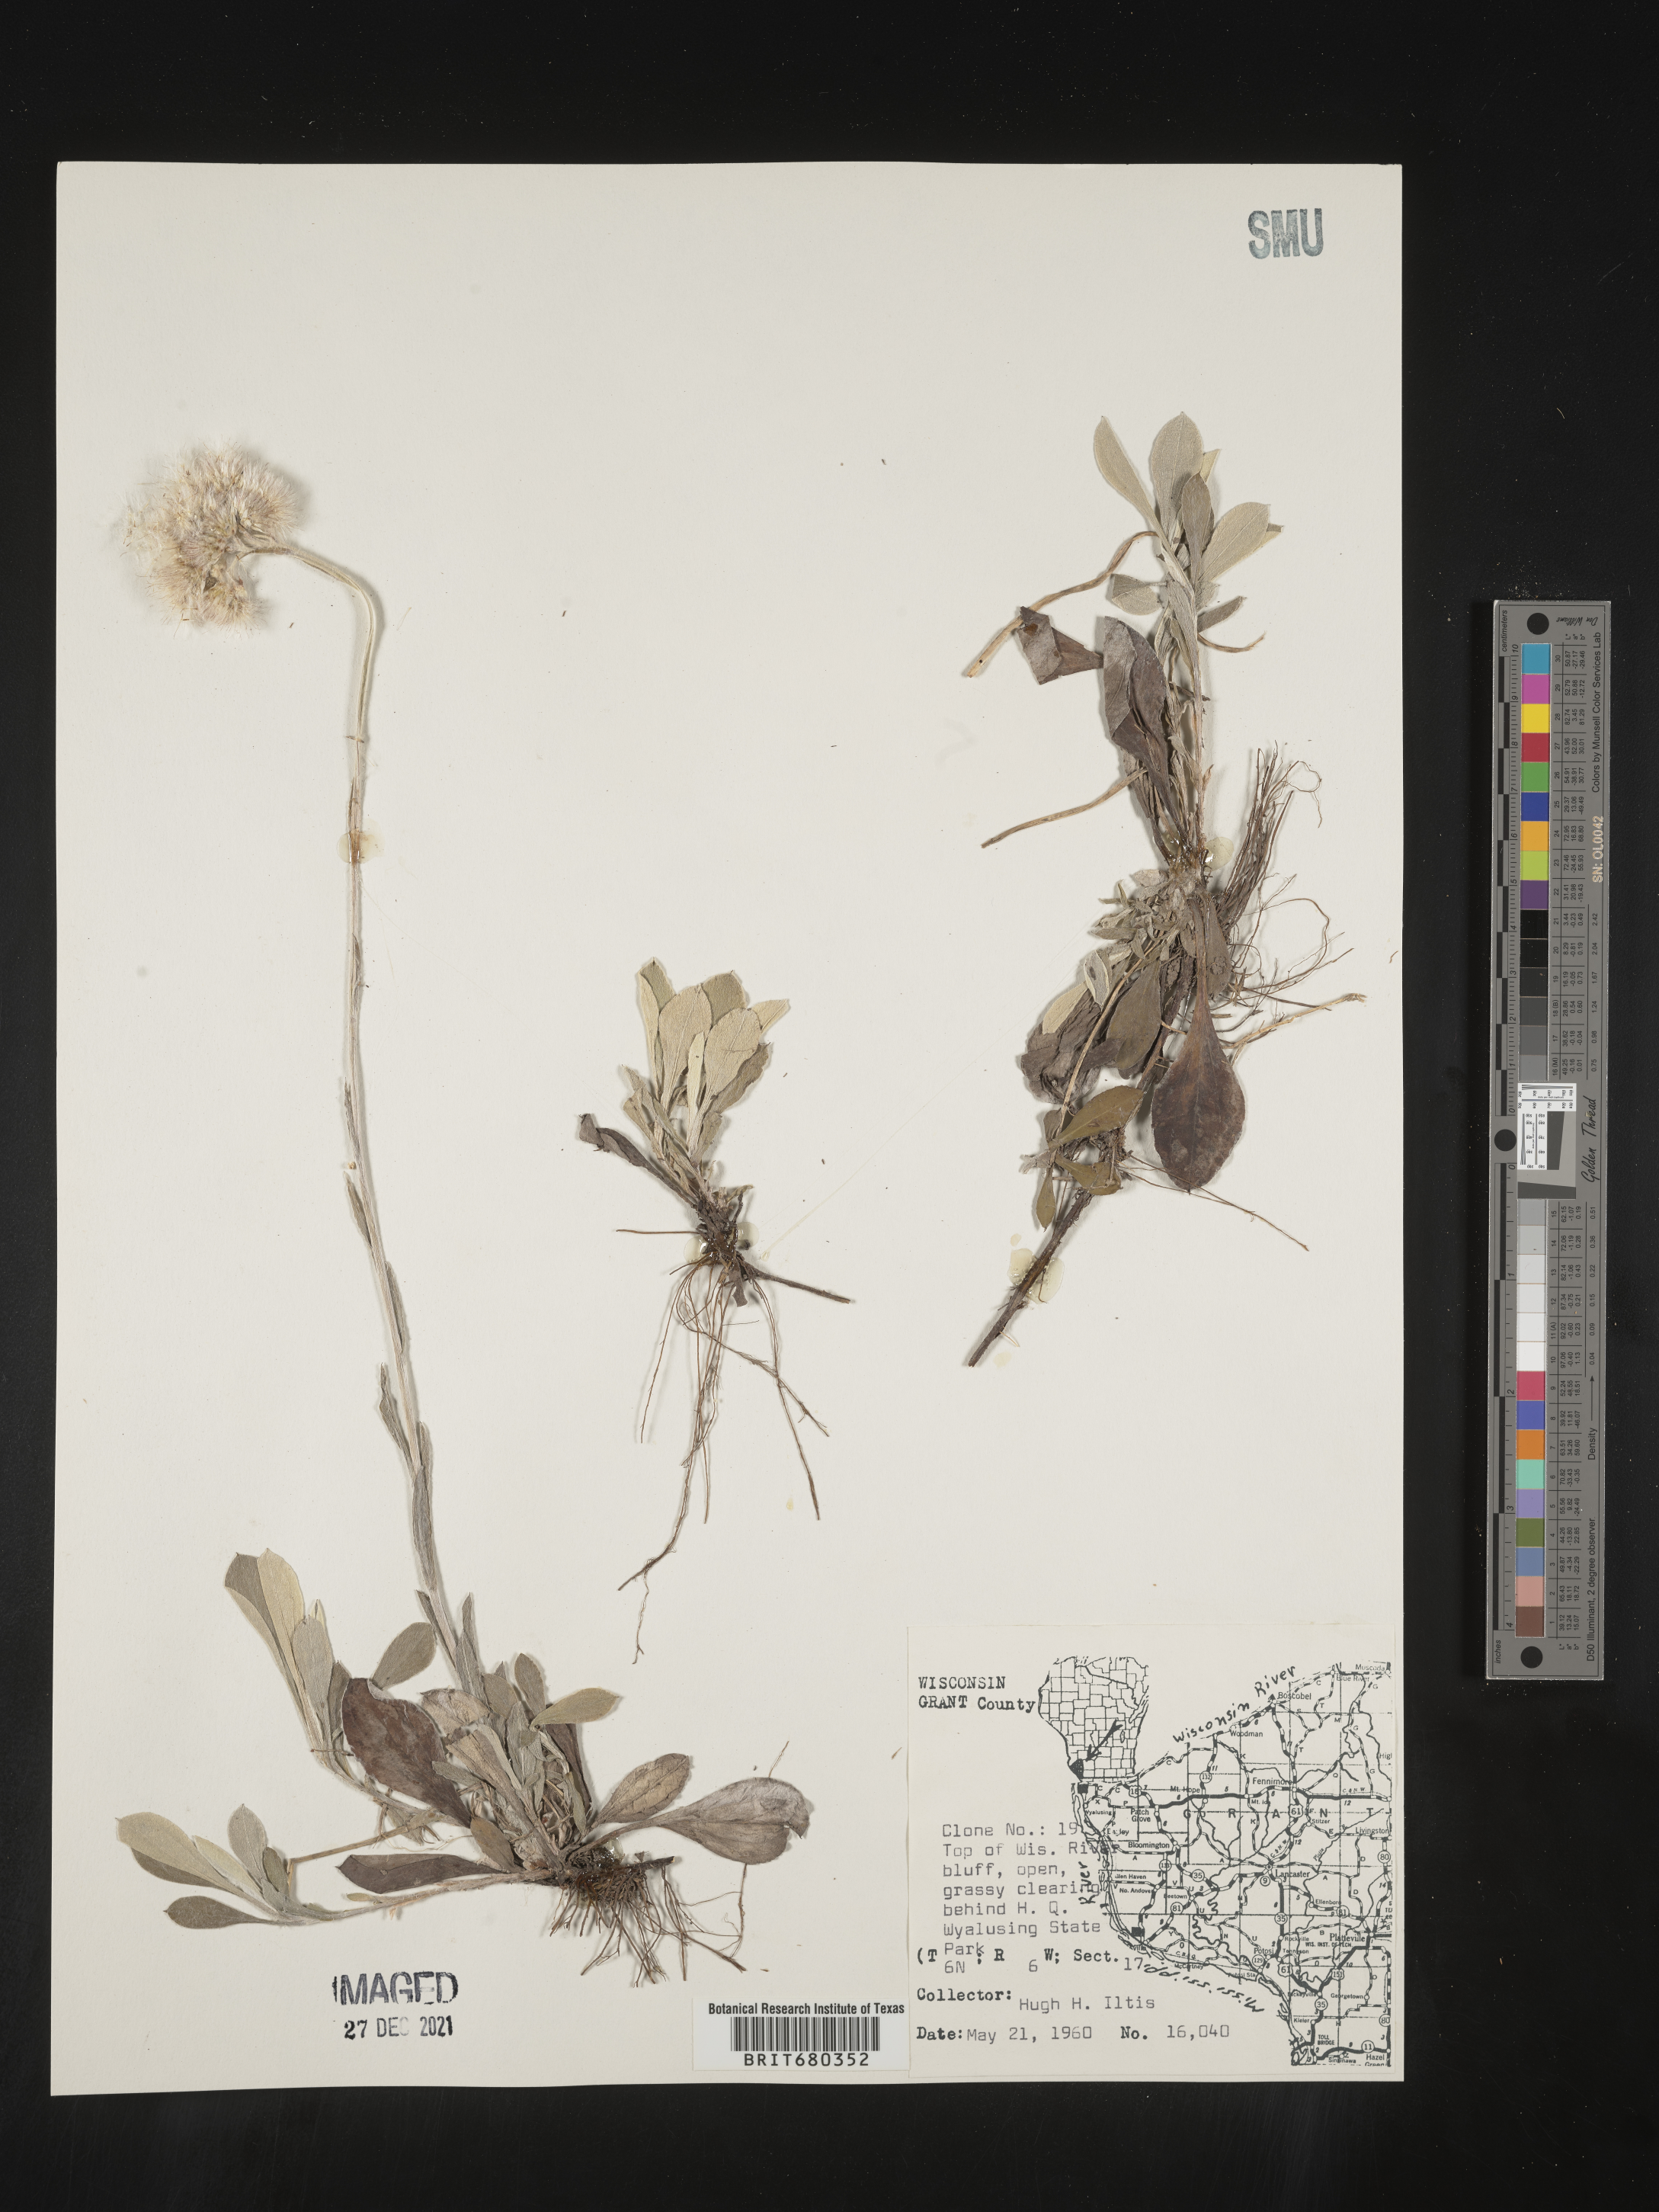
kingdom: Plantae
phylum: Tracheophyta
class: Magnoliopsida
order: Asterales
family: Asteraceae
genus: Antennaria
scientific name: Antennaria
